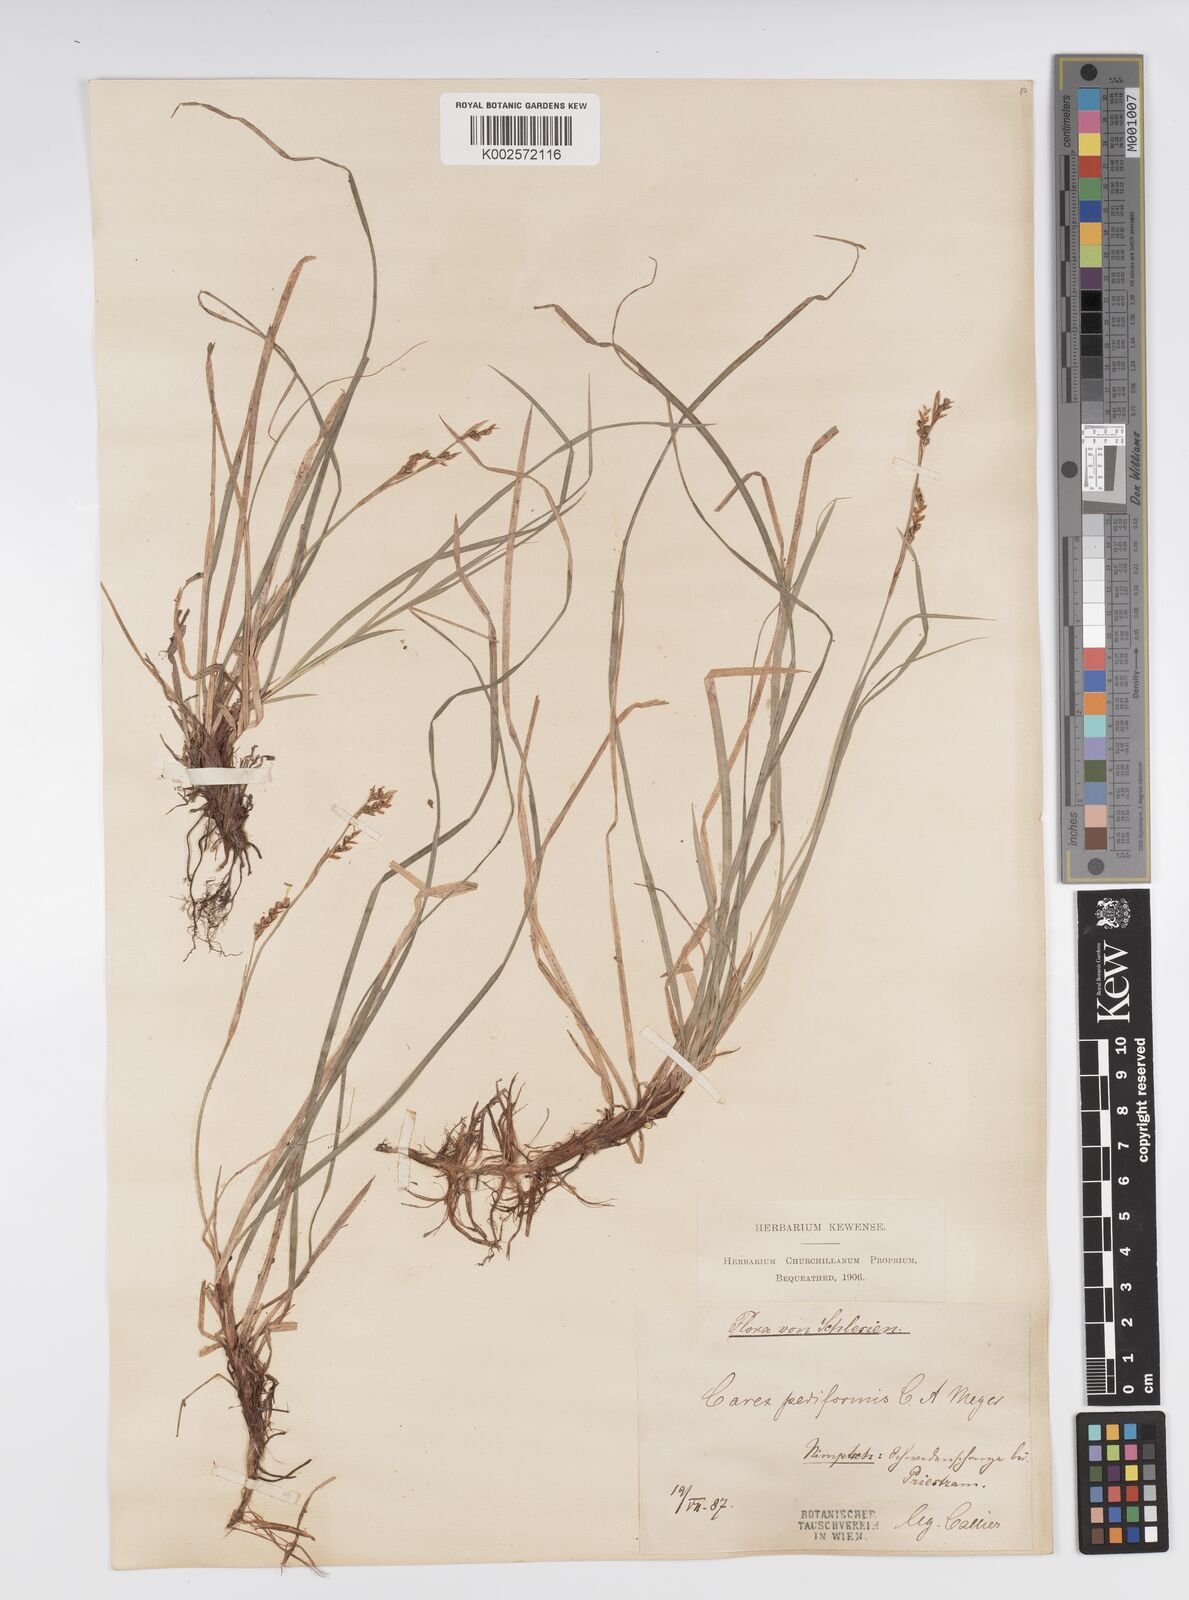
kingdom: Plantae
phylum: Tracheophyta
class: Liliopsida
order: Poales
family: Cyperaceae
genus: Carex
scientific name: Carex pediformis
